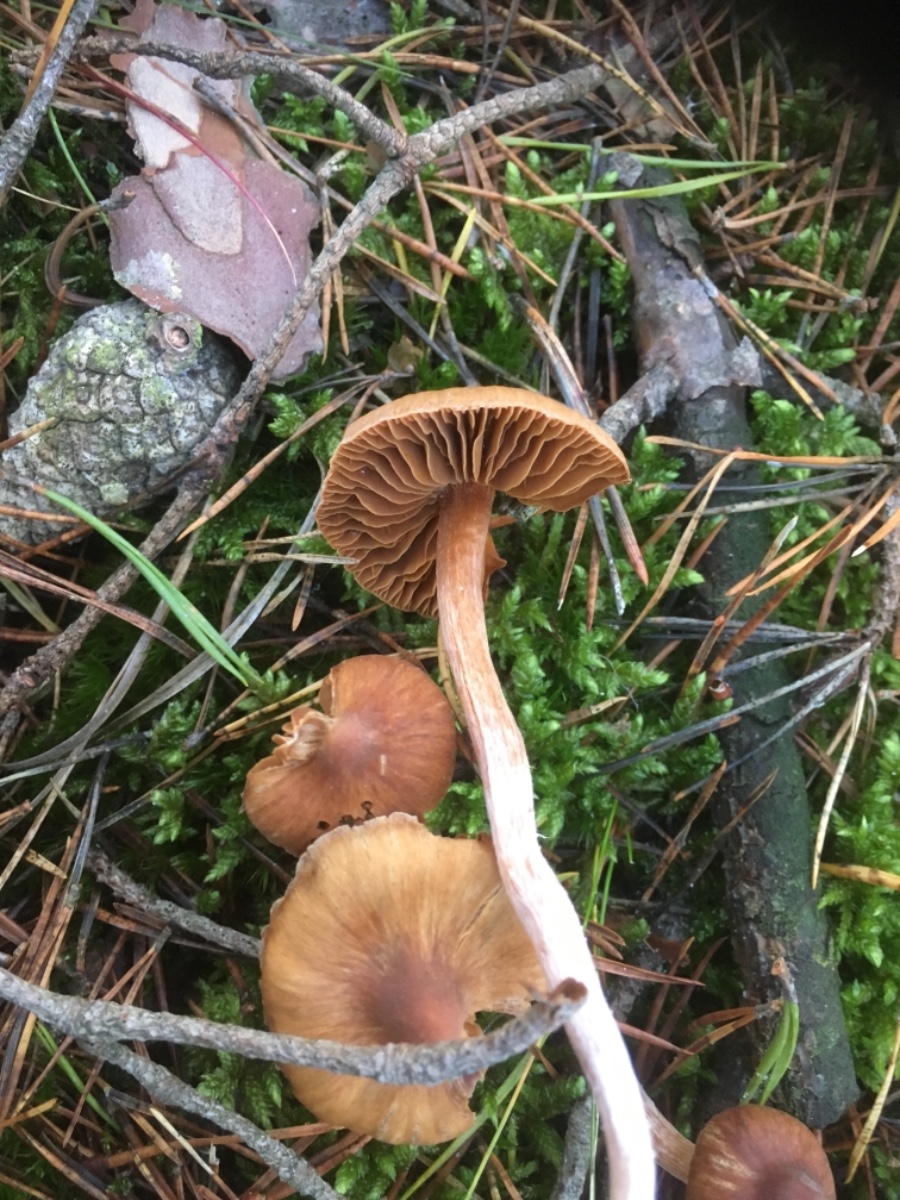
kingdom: Fungi
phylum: Basidiomycota
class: Agaricomycetes
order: Agaricales
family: Cortinariaceae
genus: Cortinarius
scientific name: Cortinarius
